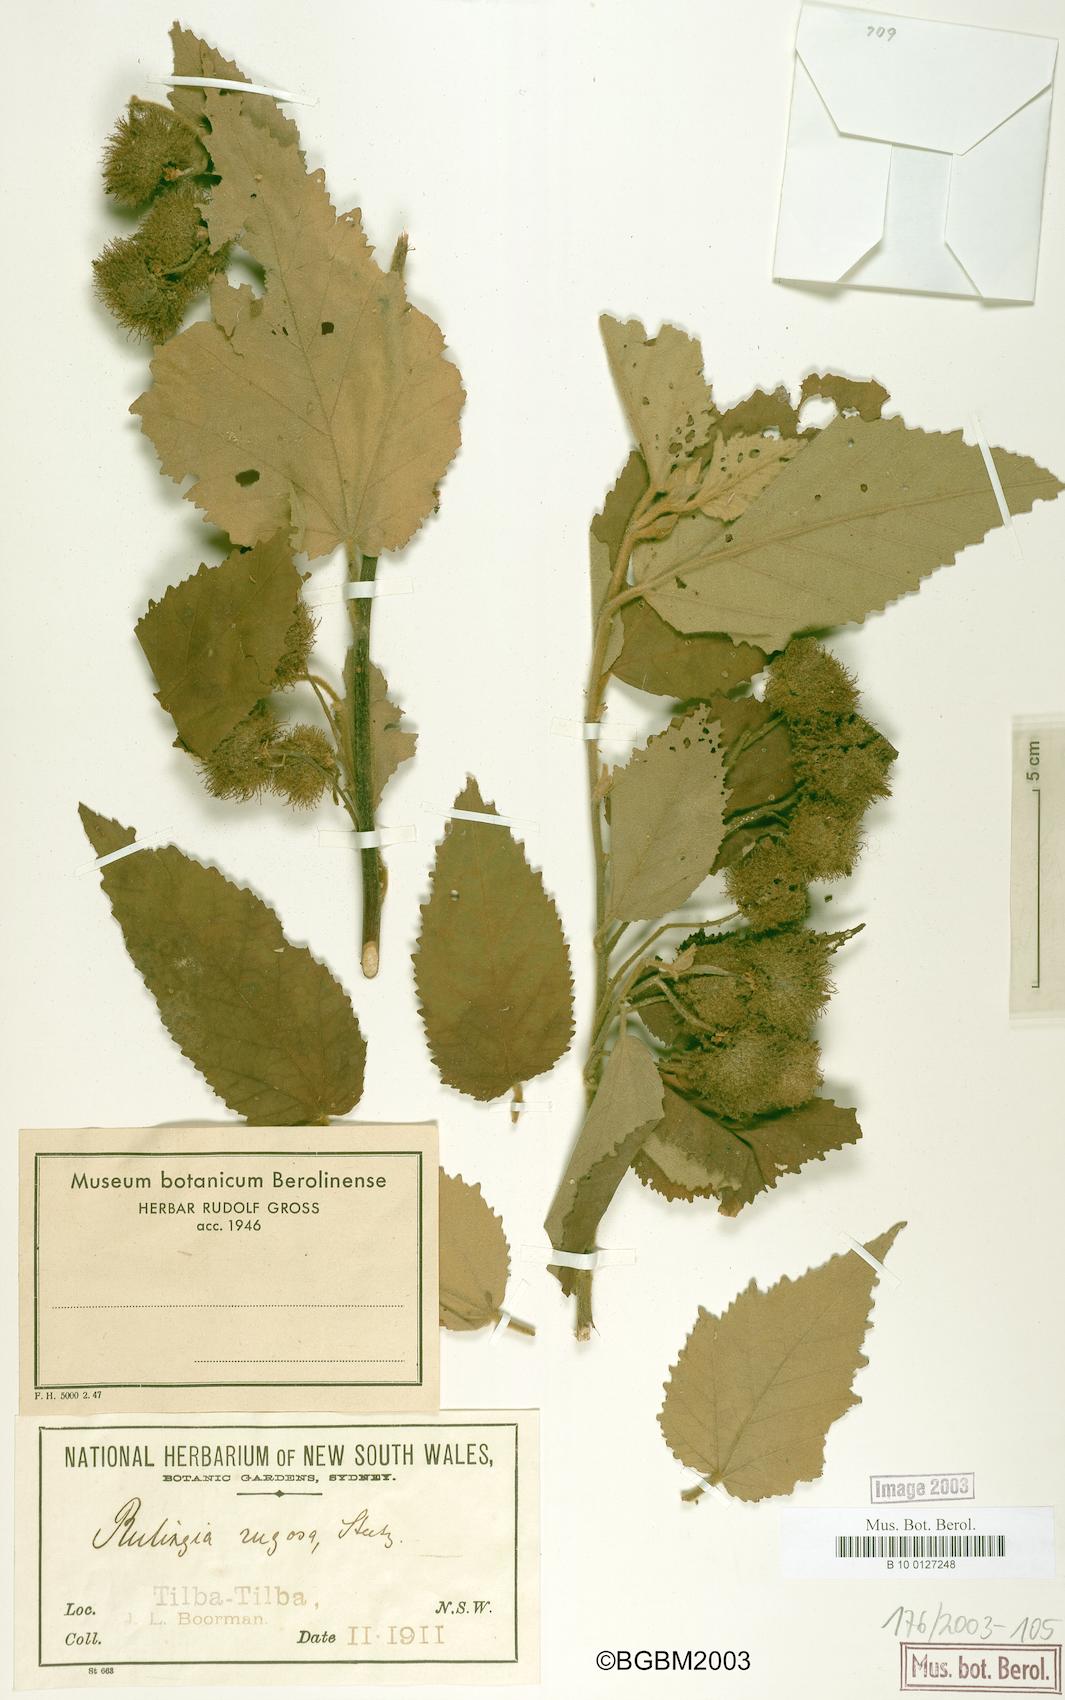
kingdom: Plantae
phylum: Tracheophyta
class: Magnoliopsida
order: Malvales
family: Malvaceae
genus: Commersonia
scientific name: Commersonia rugosa
